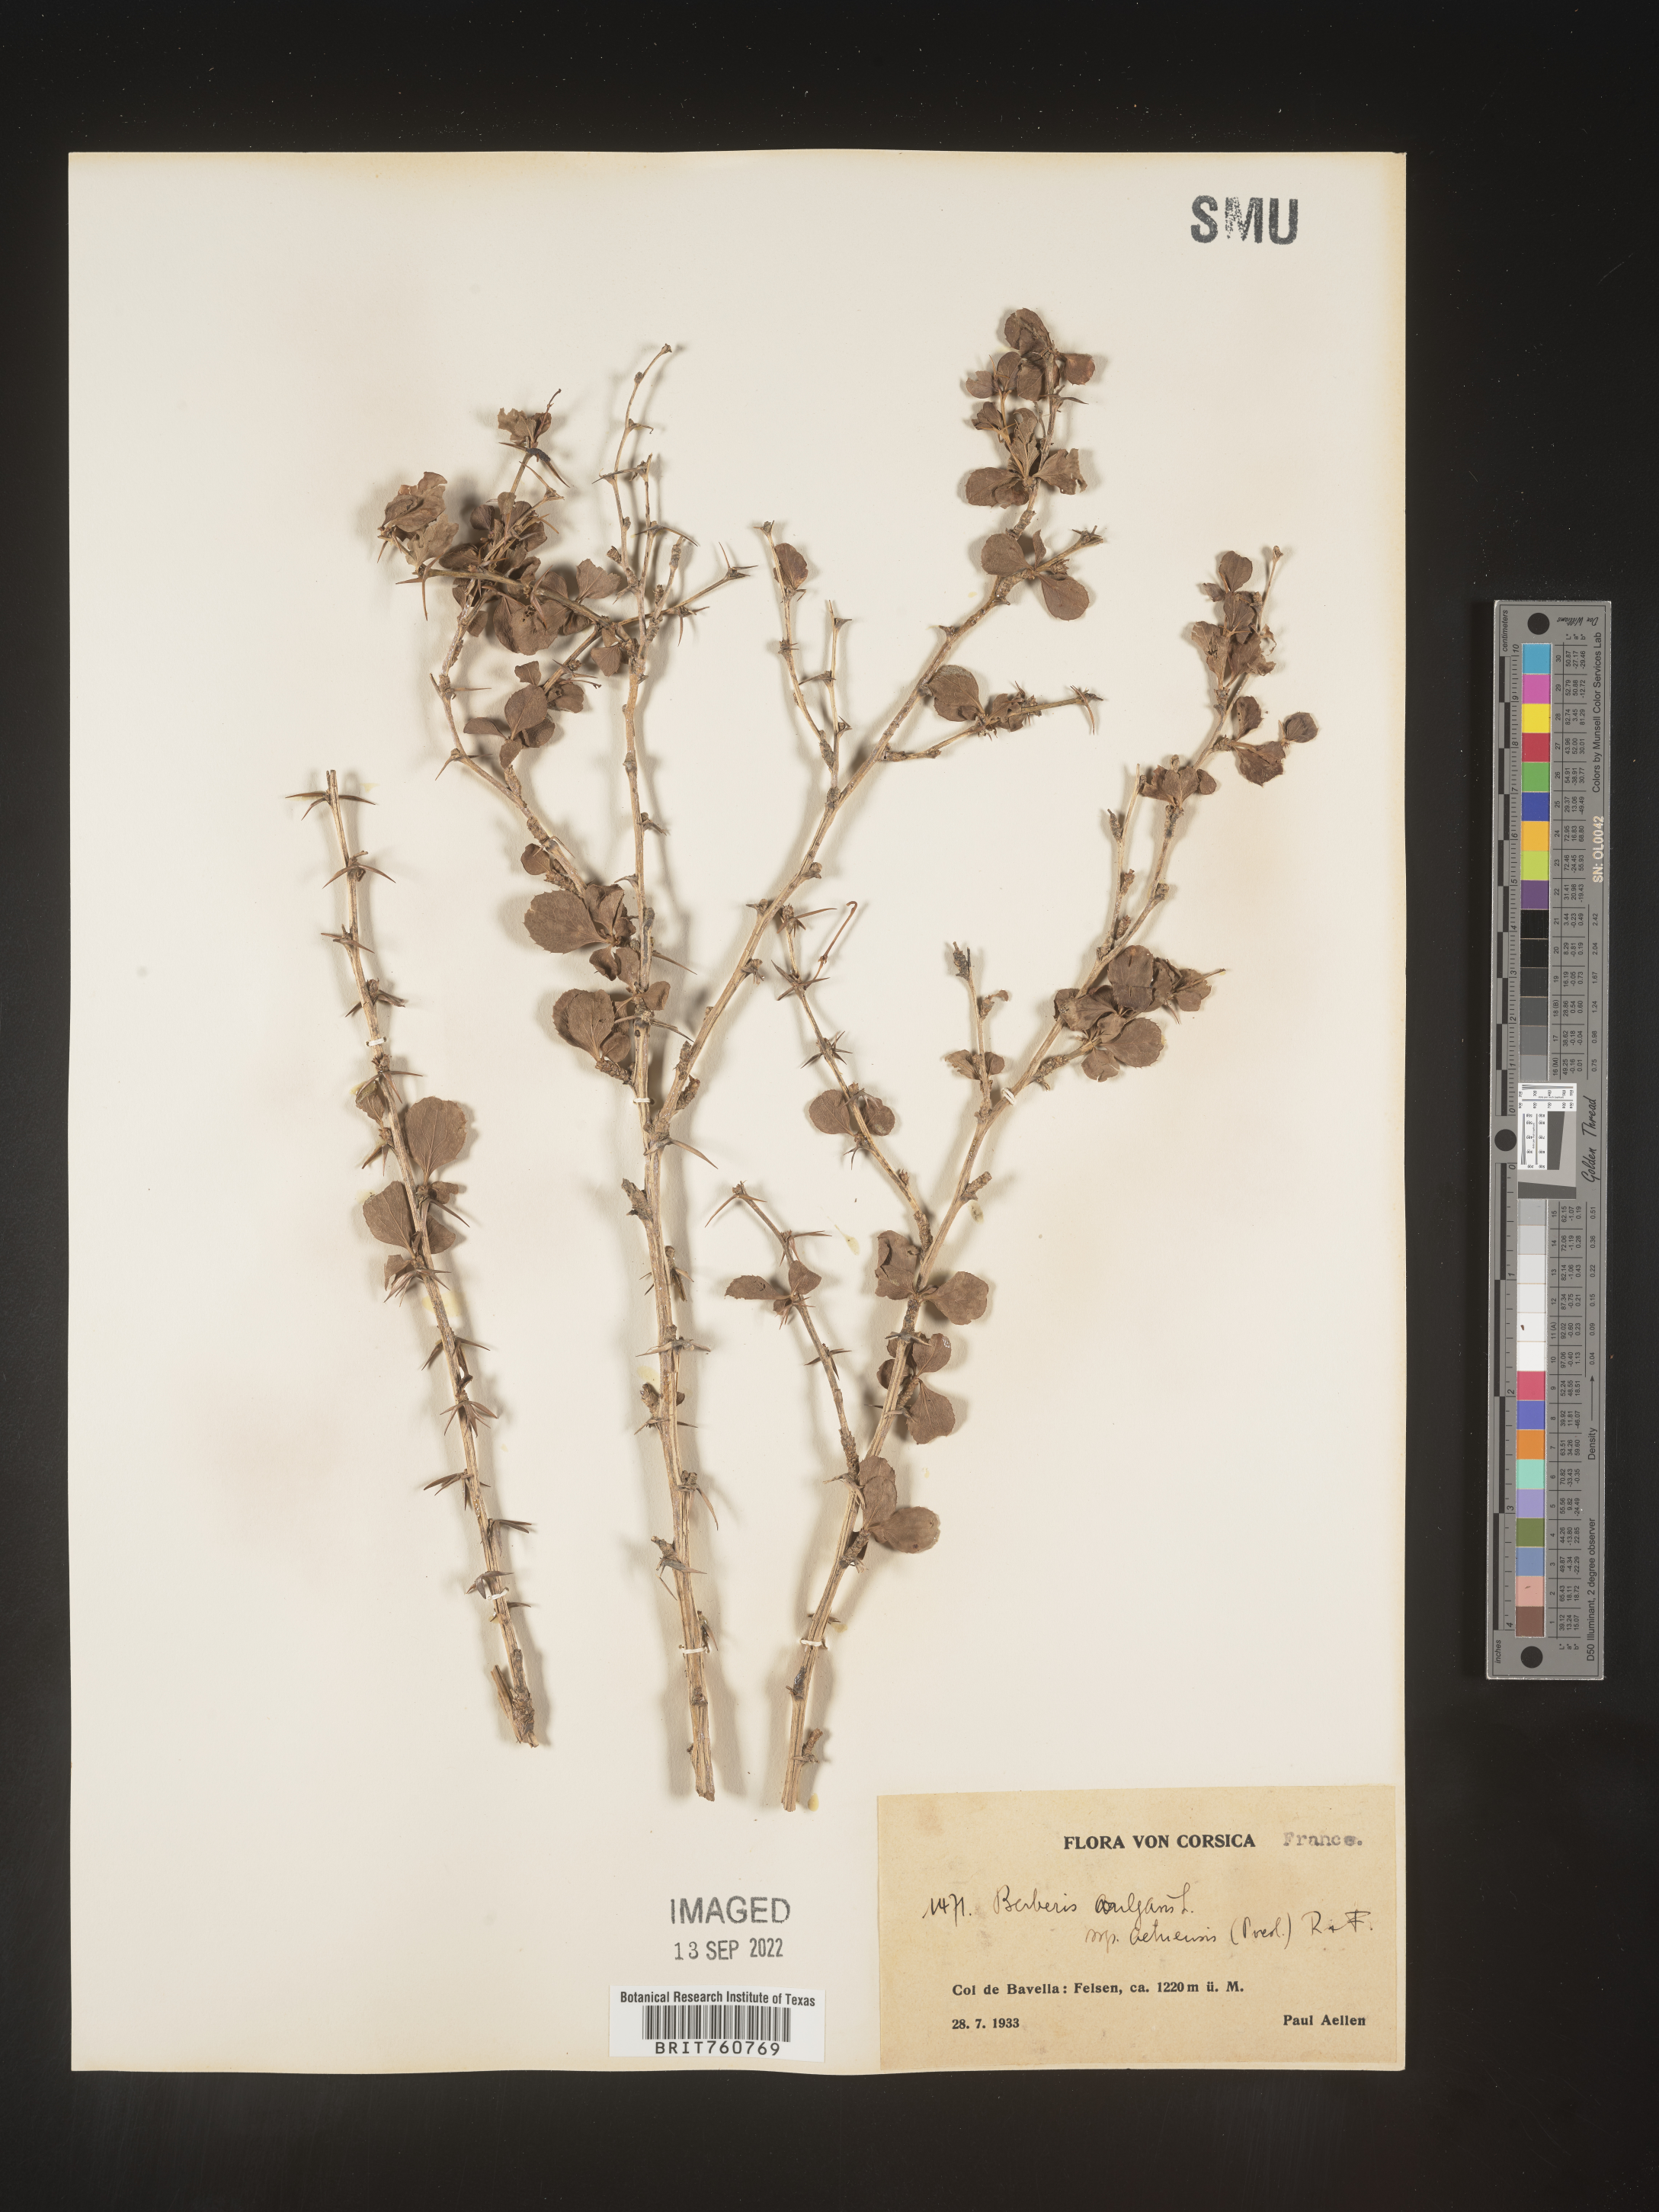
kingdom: Plantae
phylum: Tracheophyta
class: Magnoliopsida
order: Ranunculales
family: Berberidaceae
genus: Berberis
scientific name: Berberis
